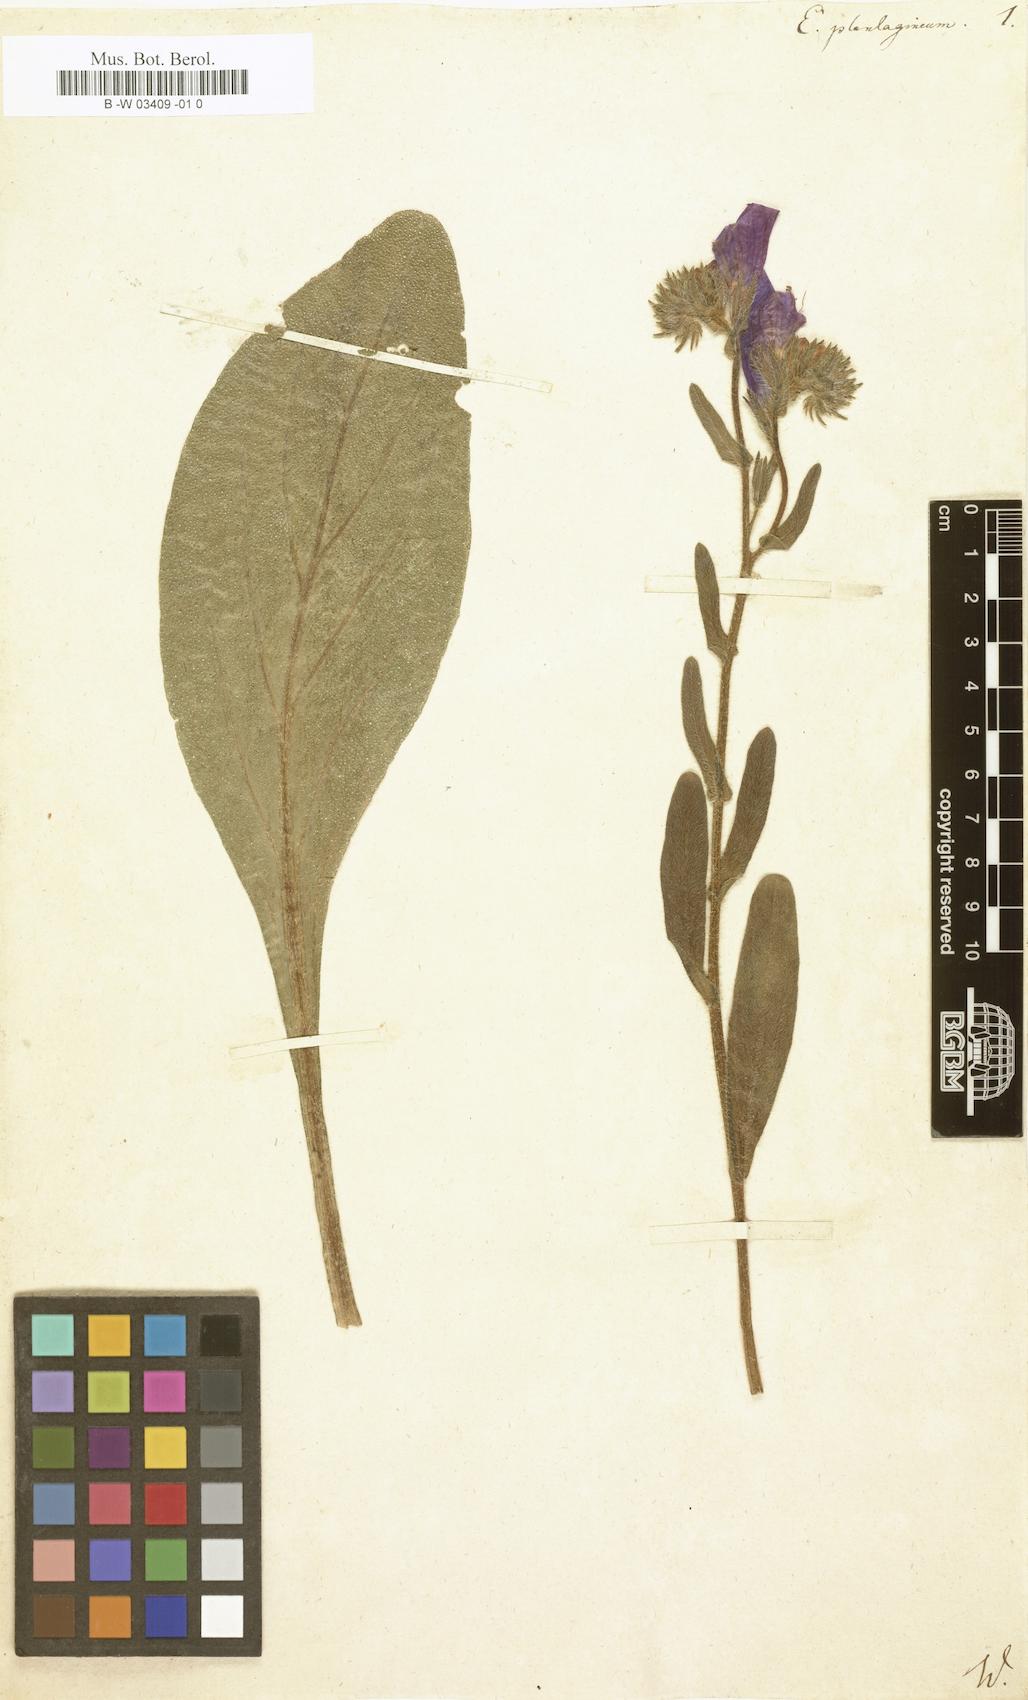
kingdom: Plantae
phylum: Tracheophyta
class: Magnoliopsida
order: Boraginales
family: Boraginaceae
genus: Echium
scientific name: Echium plantagineum
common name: Purple viper's-bugloss
